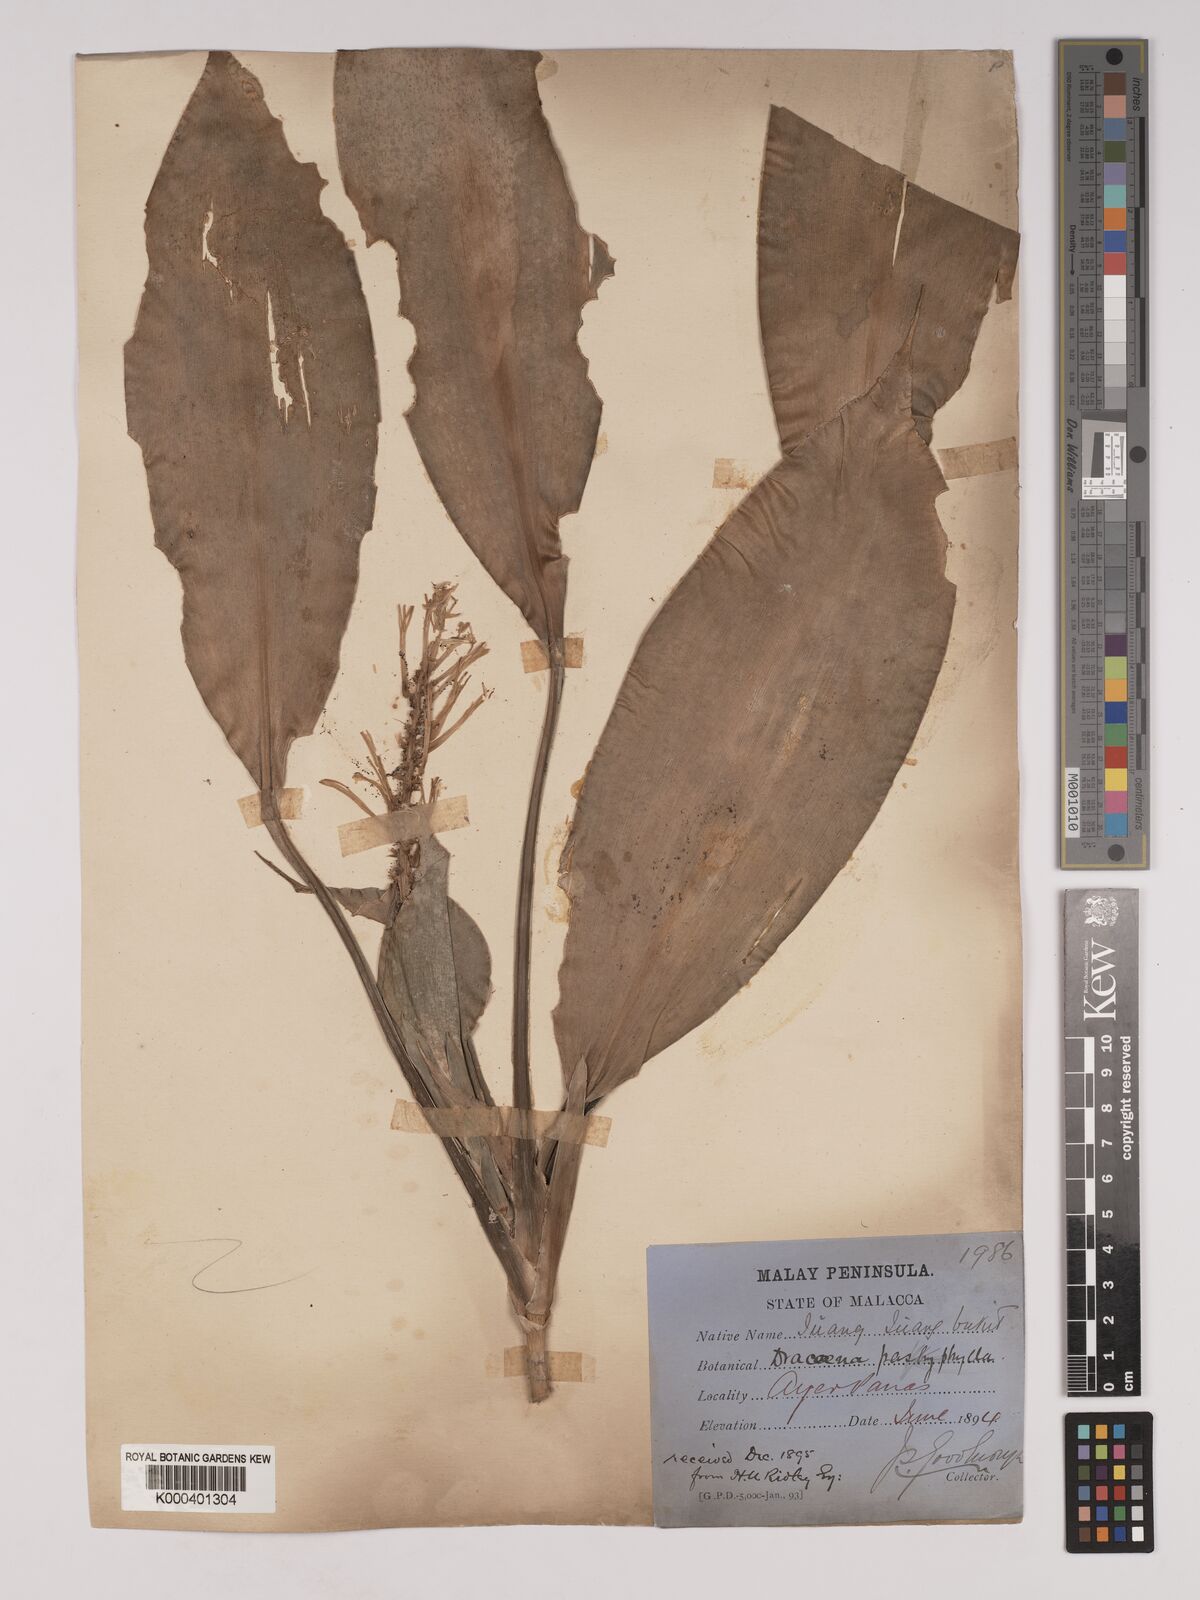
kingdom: Plantae
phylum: Tracheophyta
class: Liliopsida
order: Asparagales
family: Asparagaceae
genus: Dracaena
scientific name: Dracaena chiniana
